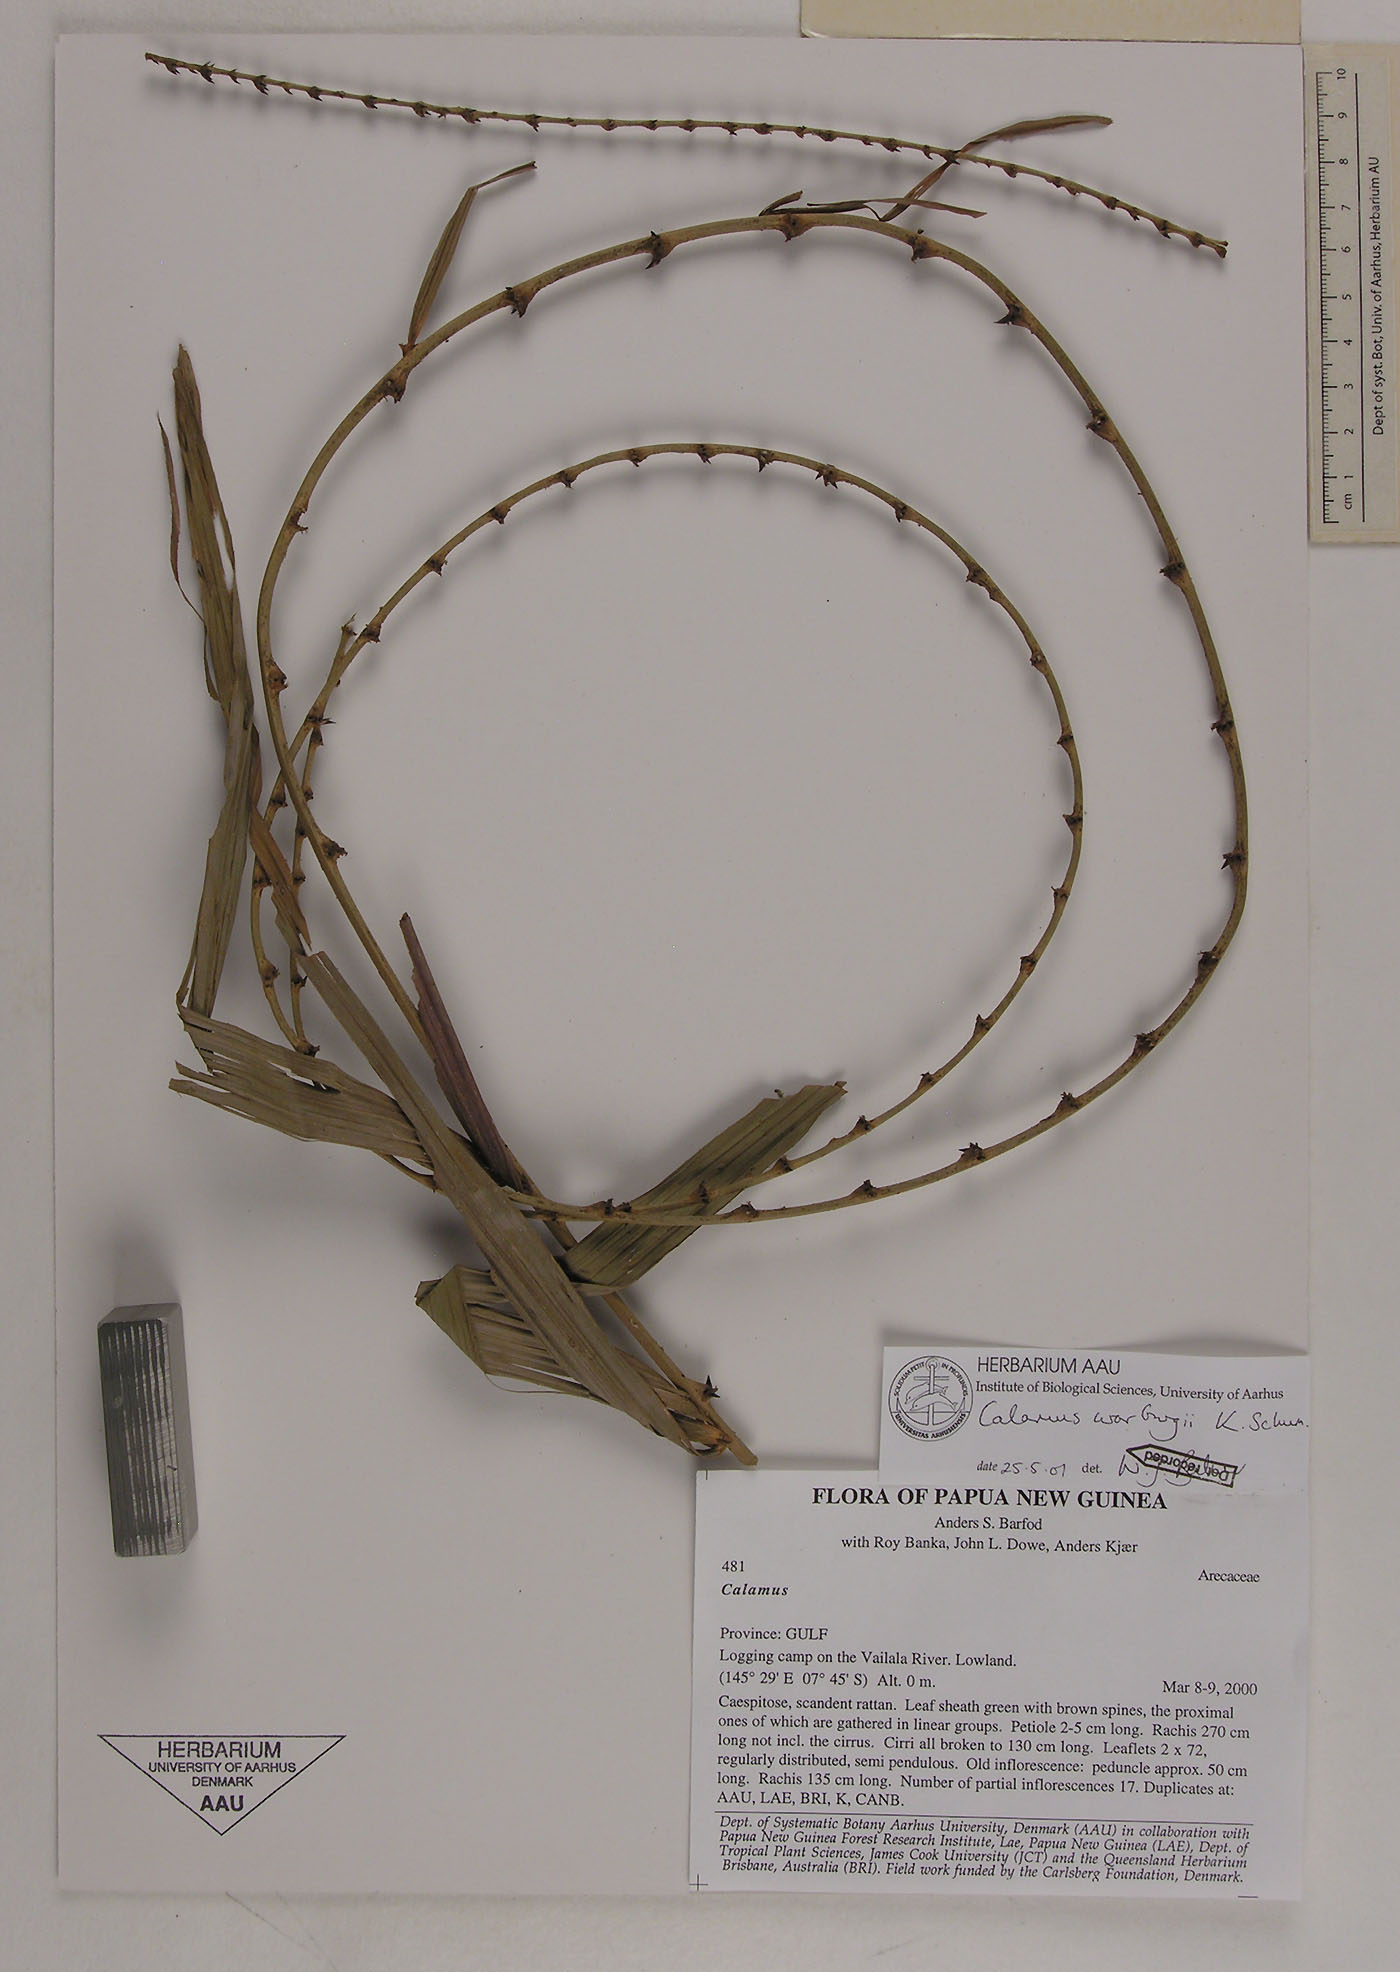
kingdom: Plantae
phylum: Tracheophyta
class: Liliopsida
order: Arecales
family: Arecaceae
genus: Calamus
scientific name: Calamus warburgii
